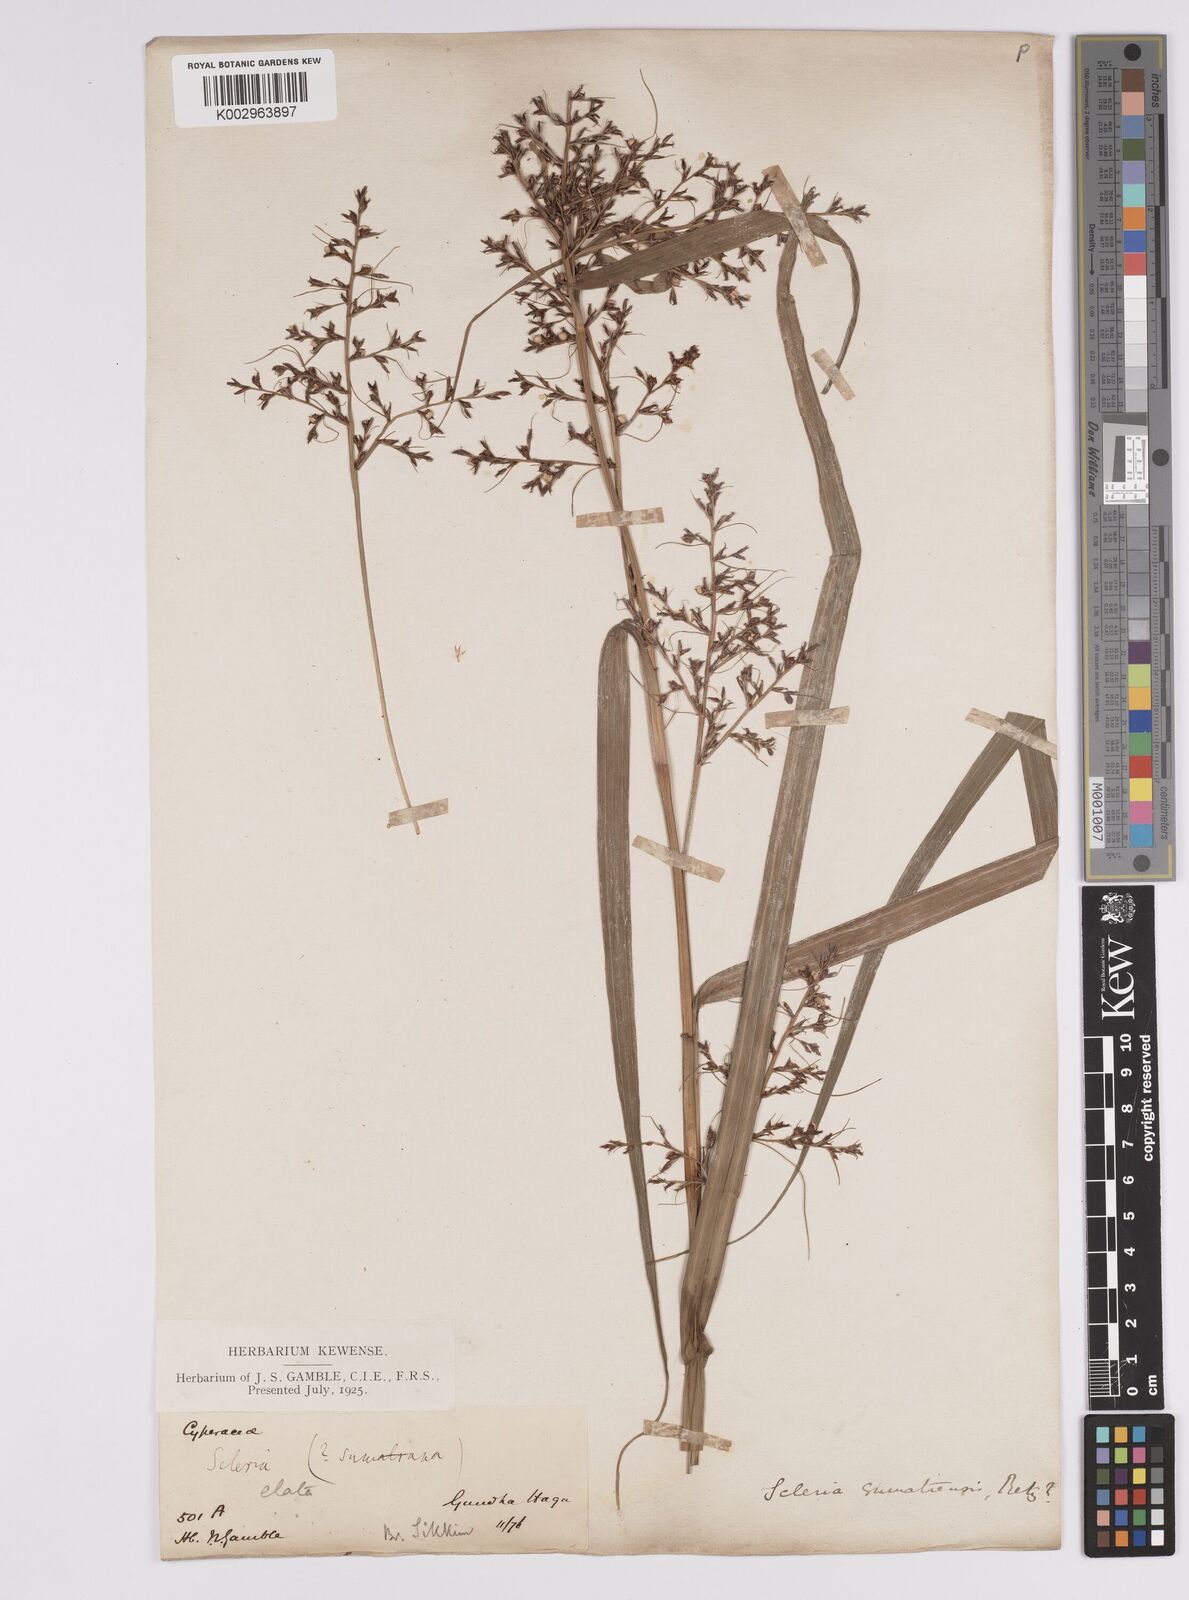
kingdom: Plantae
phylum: Tracheophyta
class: Liliopsida
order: Poales
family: Cyperaceae
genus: Scleria
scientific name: Scleria sumatrensis
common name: Sumatran scleria
